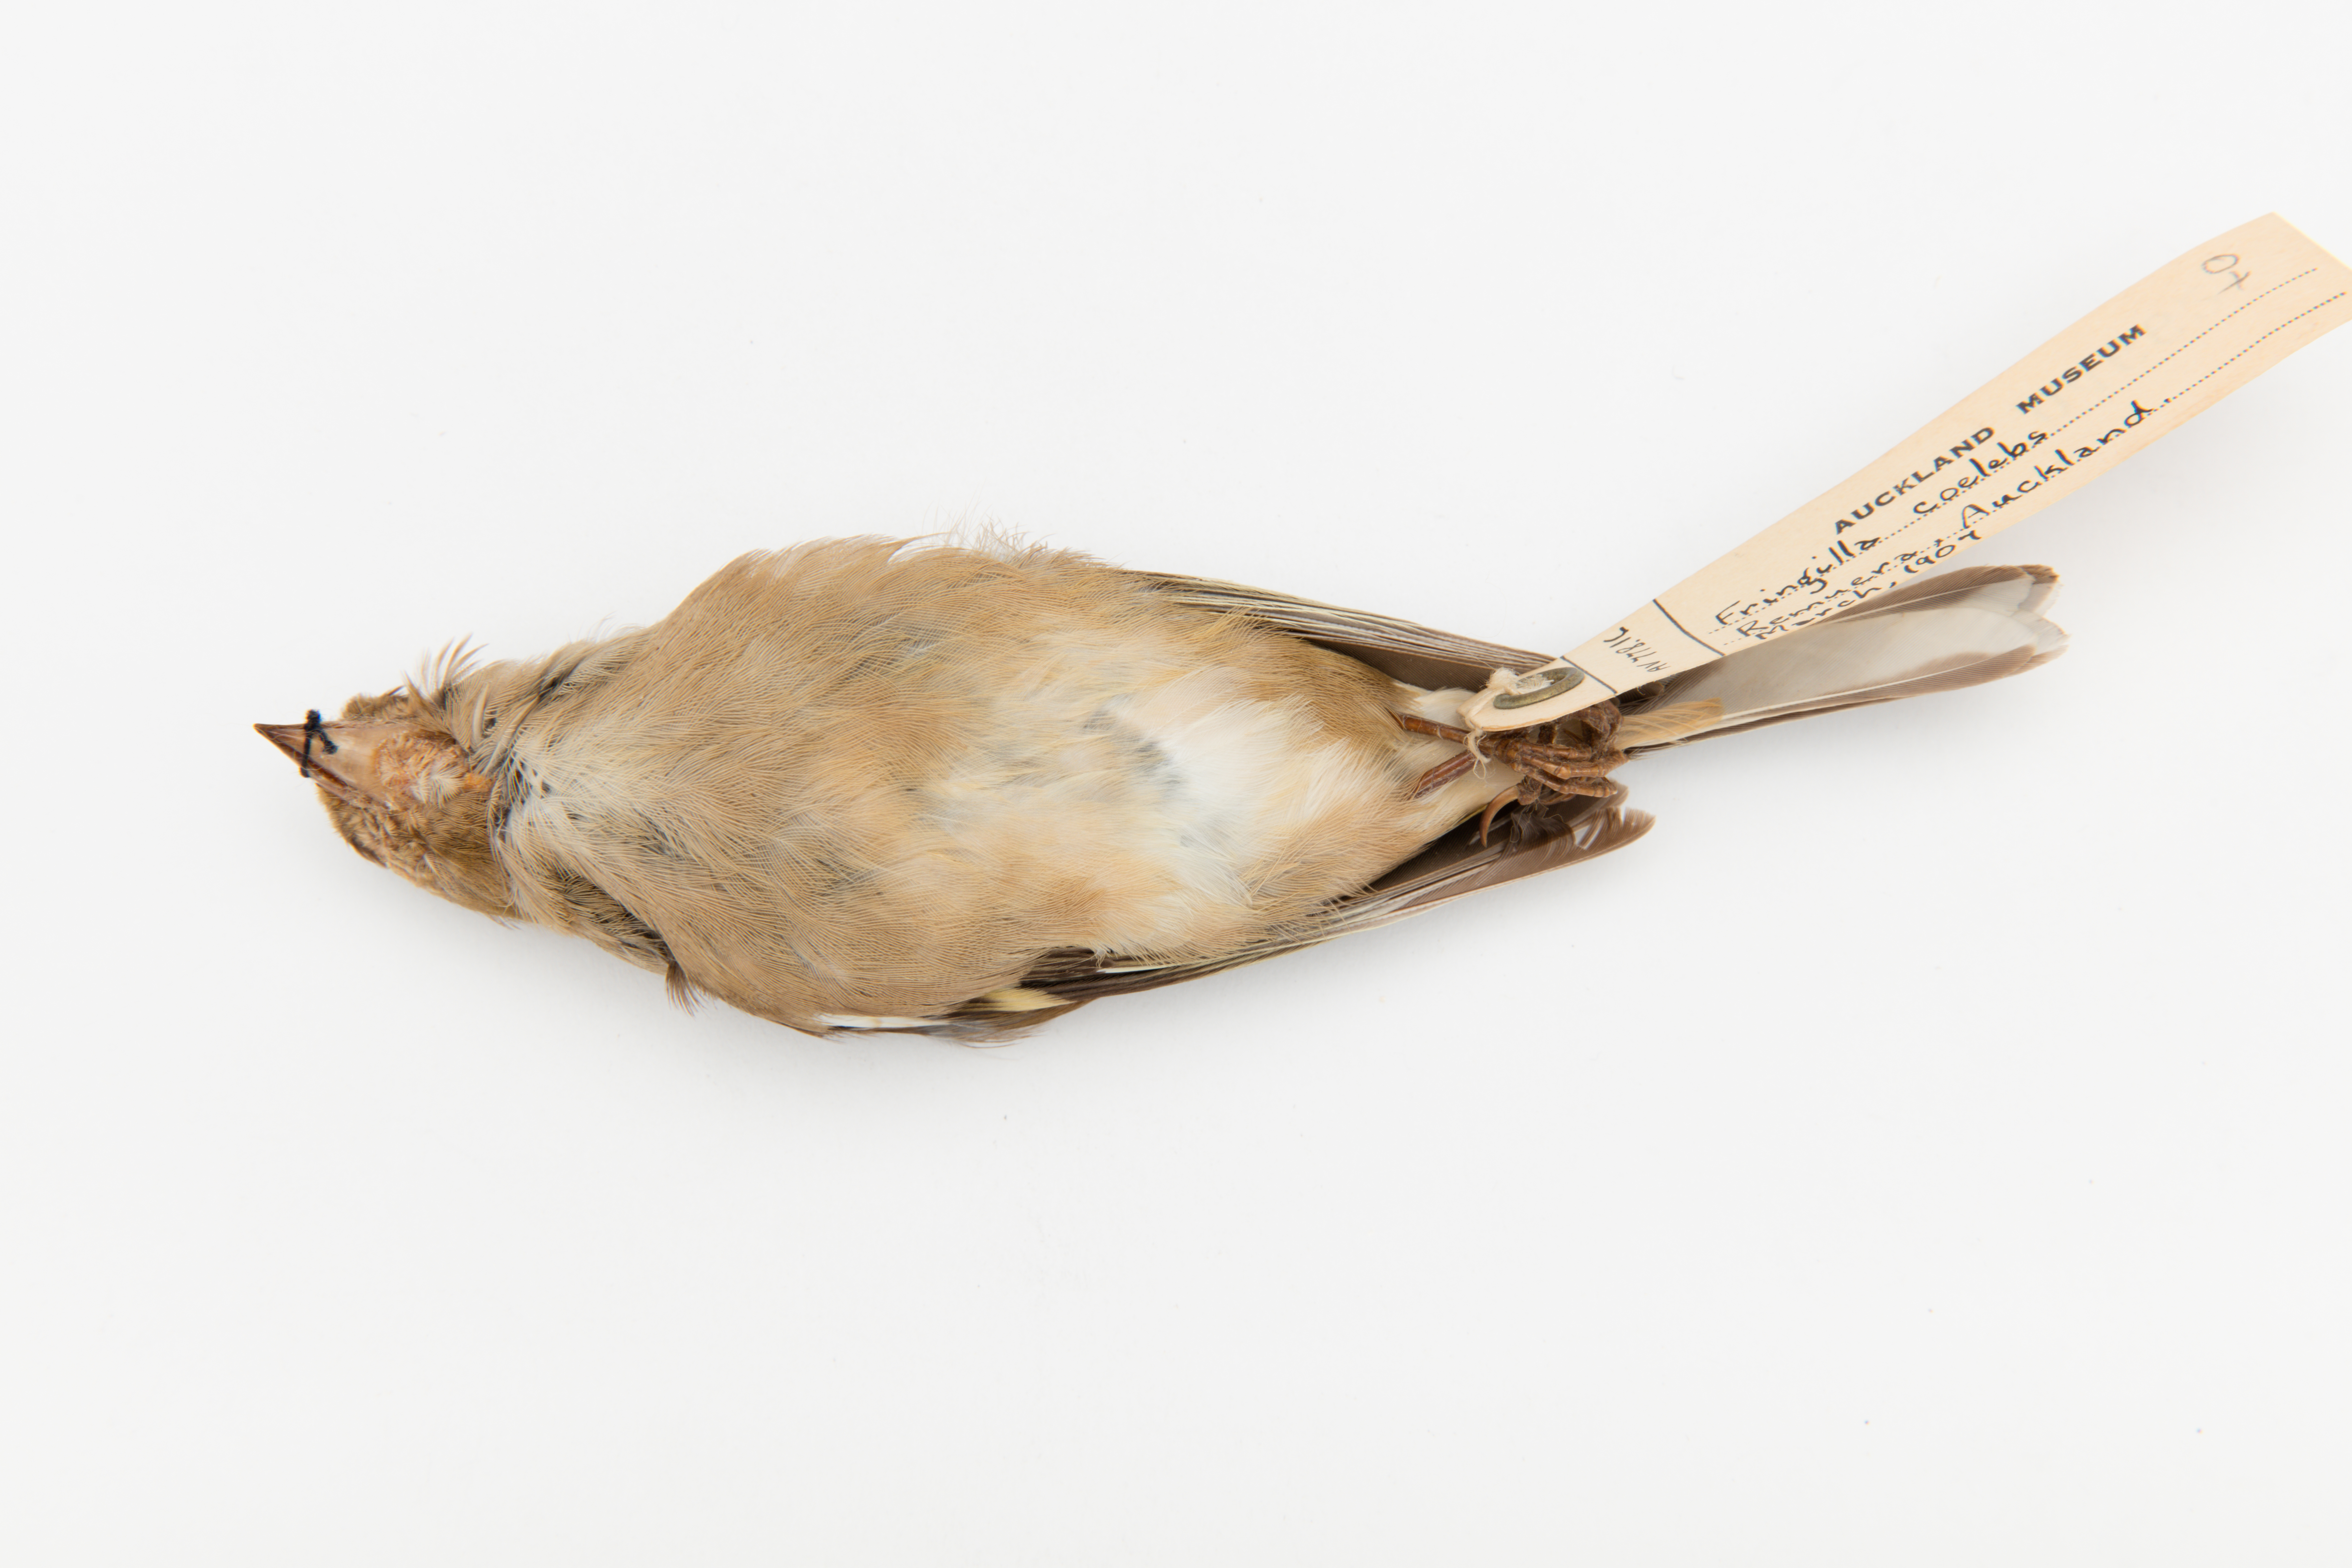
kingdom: Animalia
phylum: Chordata
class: Aves
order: Passeriformes
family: Fringillidae
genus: Fringilla
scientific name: Fringilla coelebs
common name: Common chaffinch
